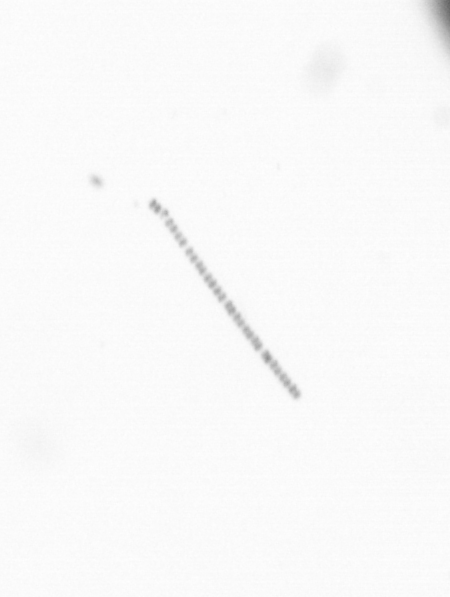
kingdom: Chromista
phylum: Ochrophyta
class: Bacillariophyceae
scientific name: Bacillariophyceae
